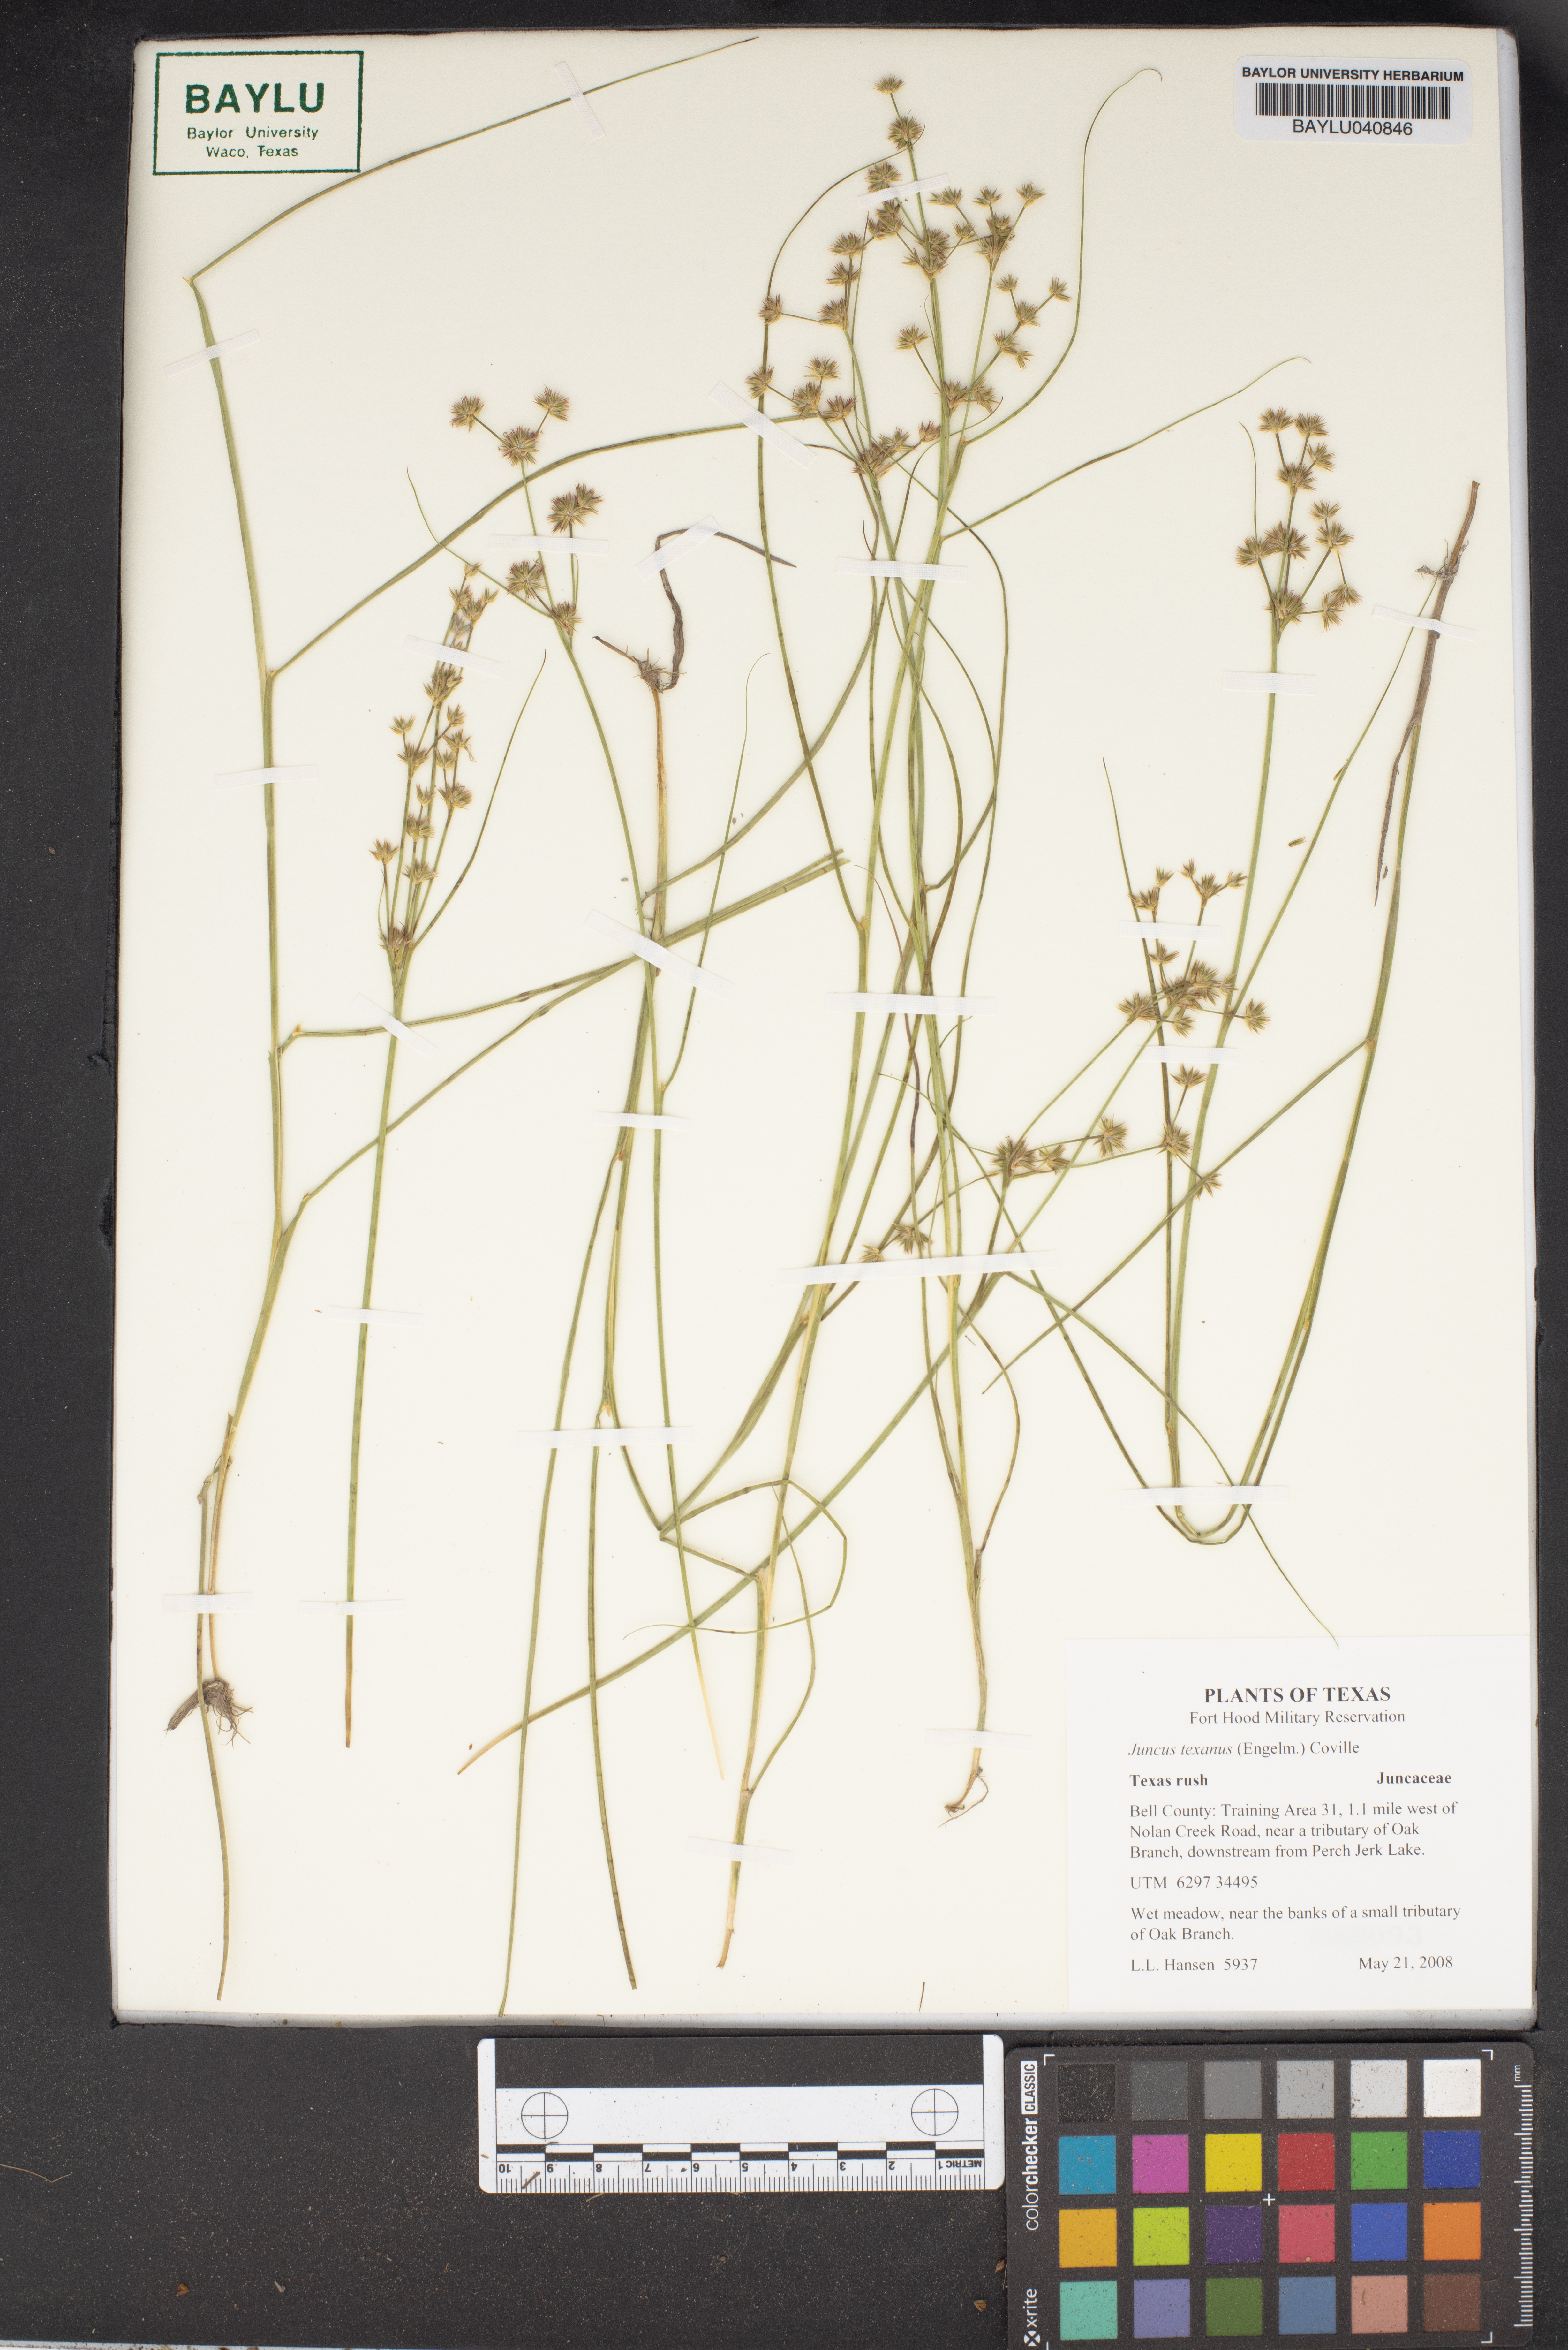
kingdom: Plantae
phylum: Tracheophyta
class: Liliopsida
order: Poales
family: Juncaceae
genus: Juncus
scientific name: Juncus texanus
